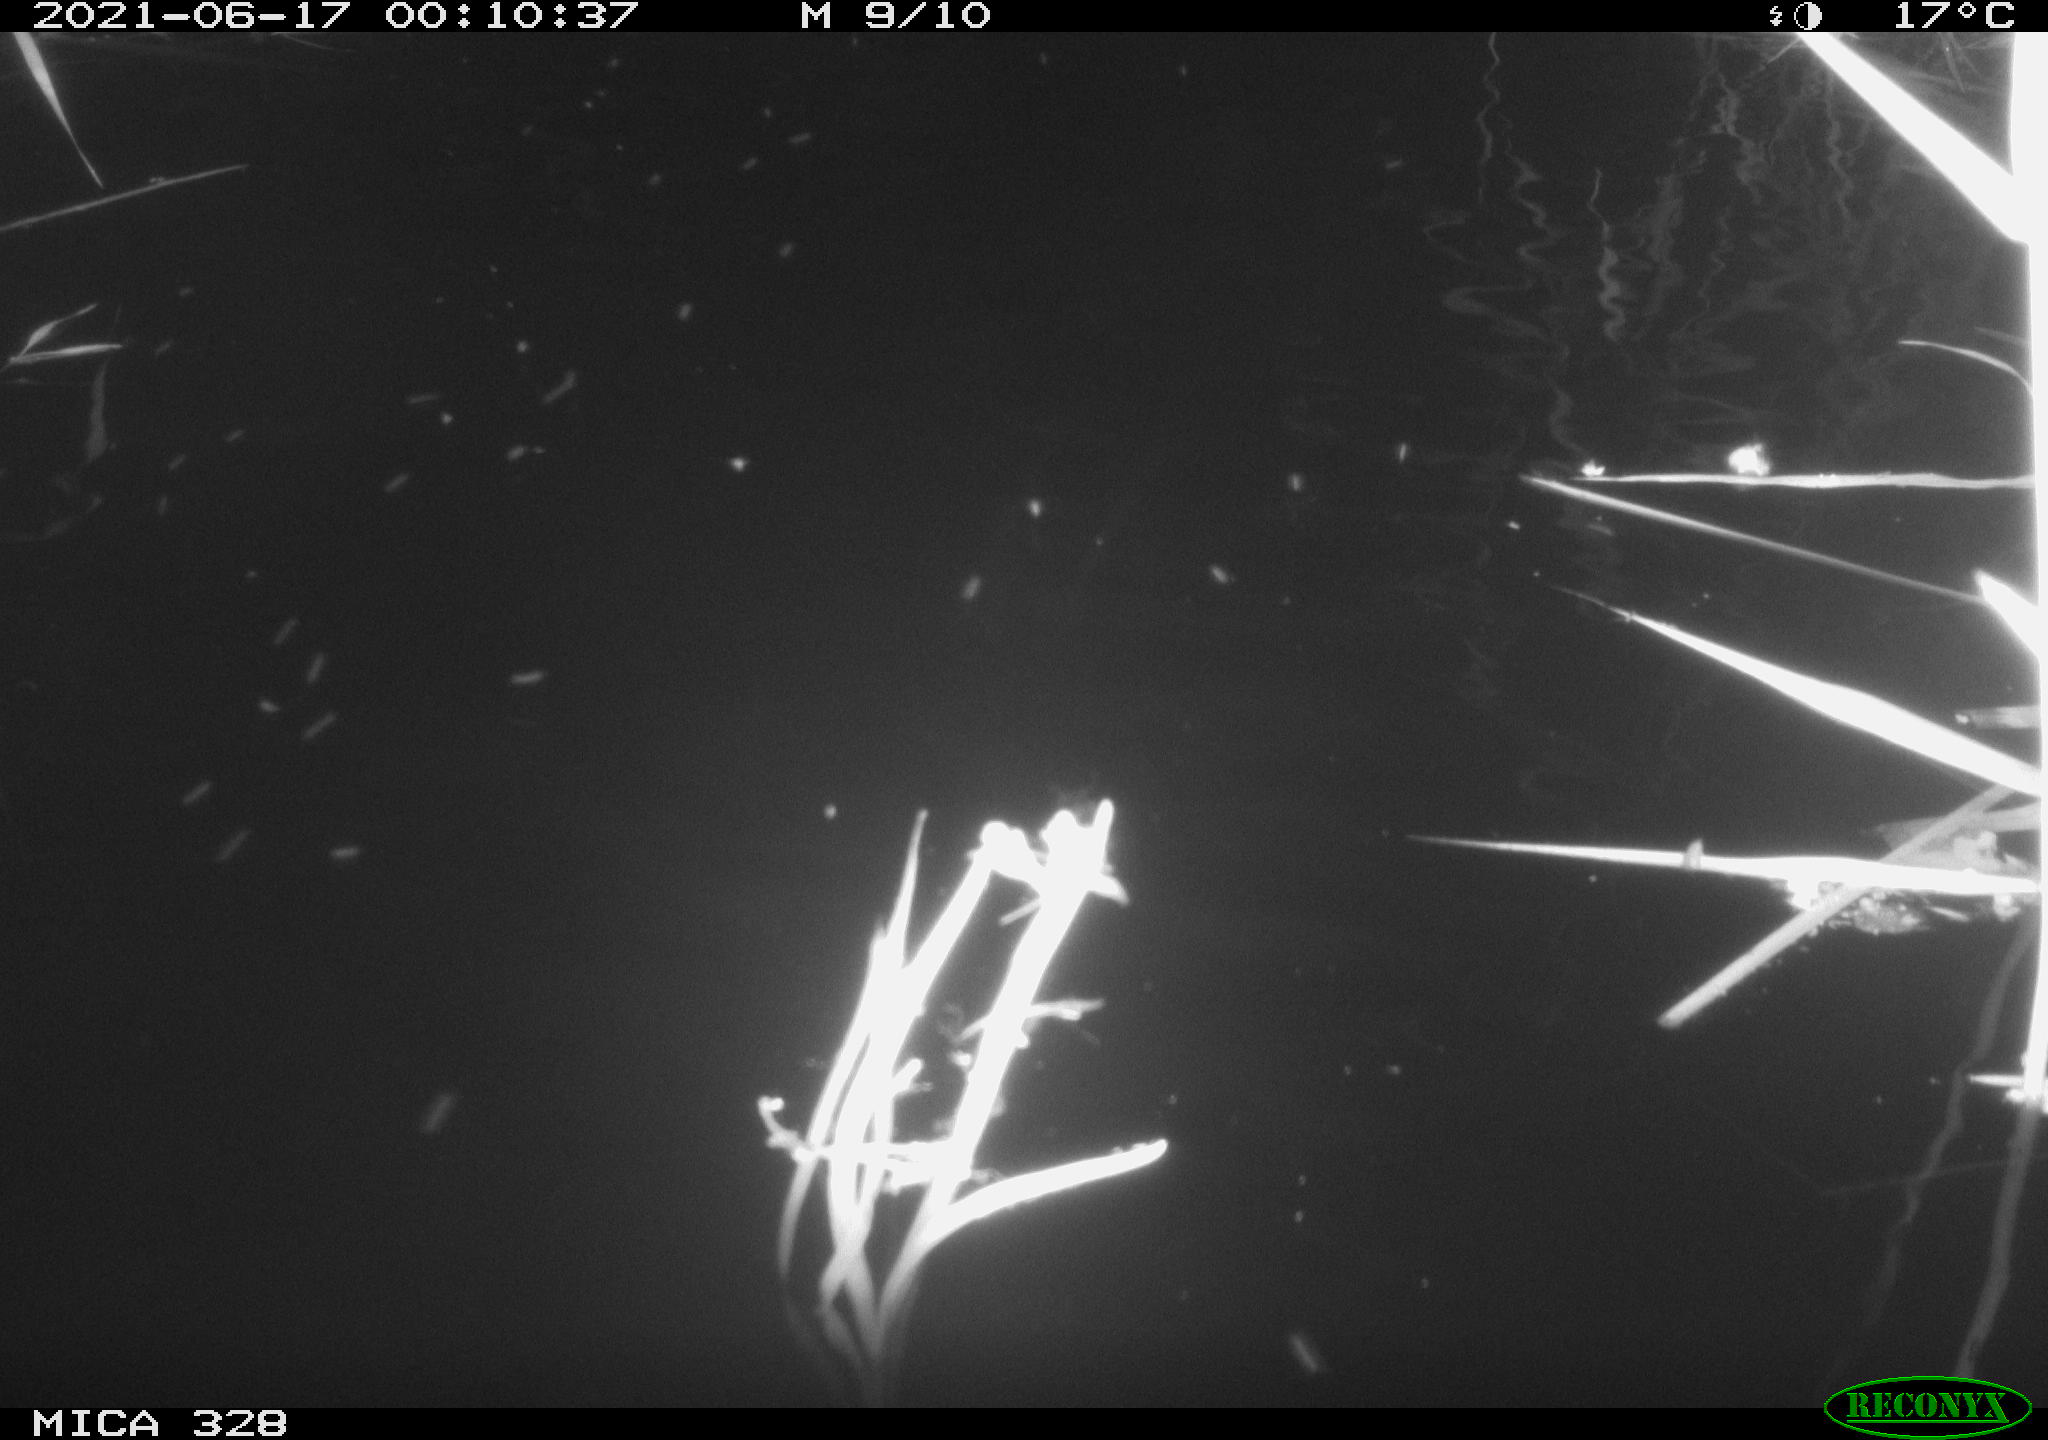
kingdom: Animalia
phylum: Chordata
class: Mammalia
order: Rodentia
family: Cricetidae
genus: Ondatra
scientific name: Ondatra zibethicus
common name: Muskrat
